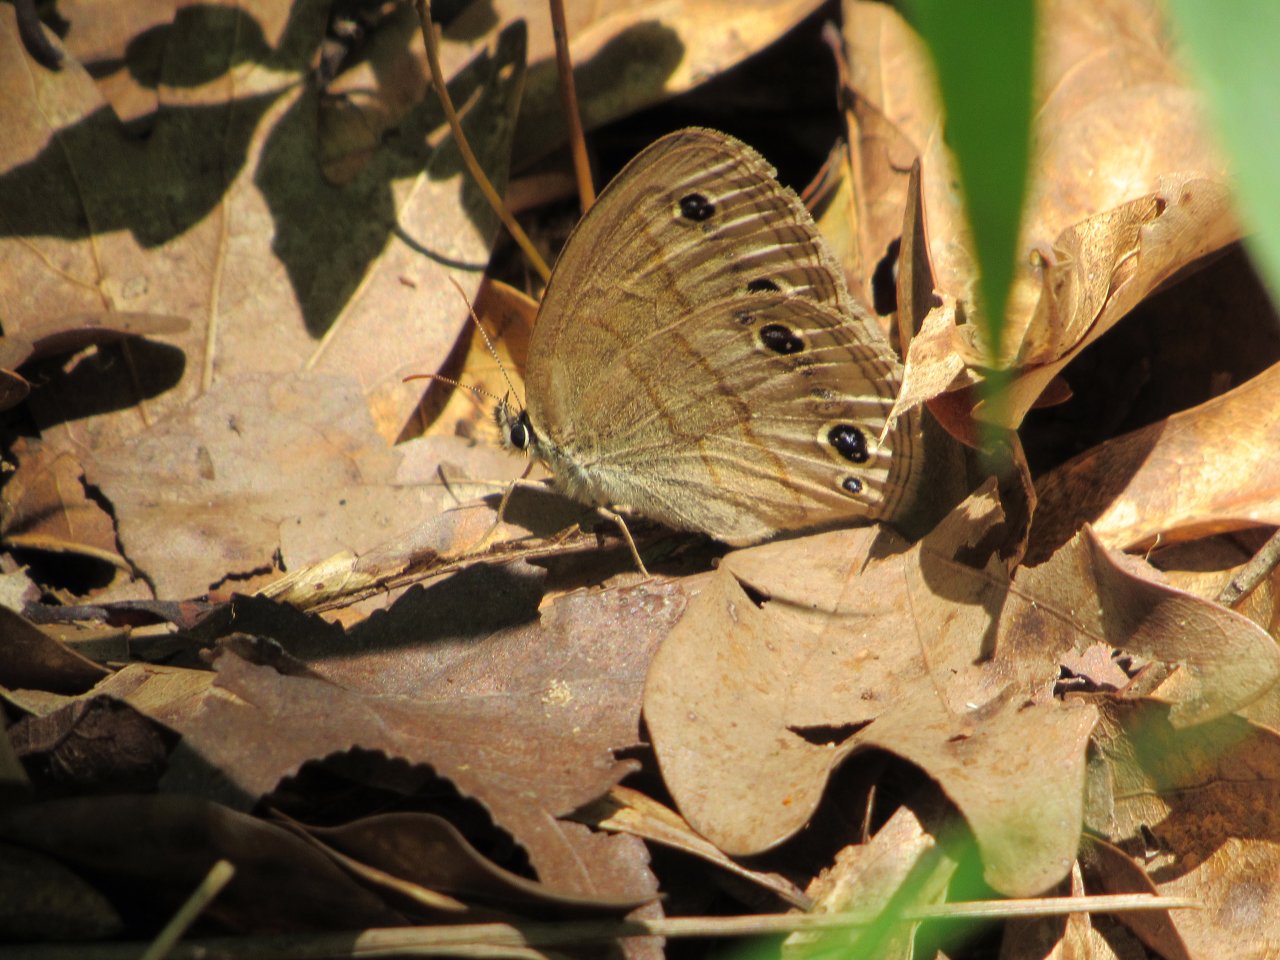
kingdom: Animalia
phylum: Arthropoda
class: Insecta
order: Lepidoptera
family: Nymphalidae
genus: Euptychia
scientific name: Euptychia cymela
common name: Little Wood Satyr
